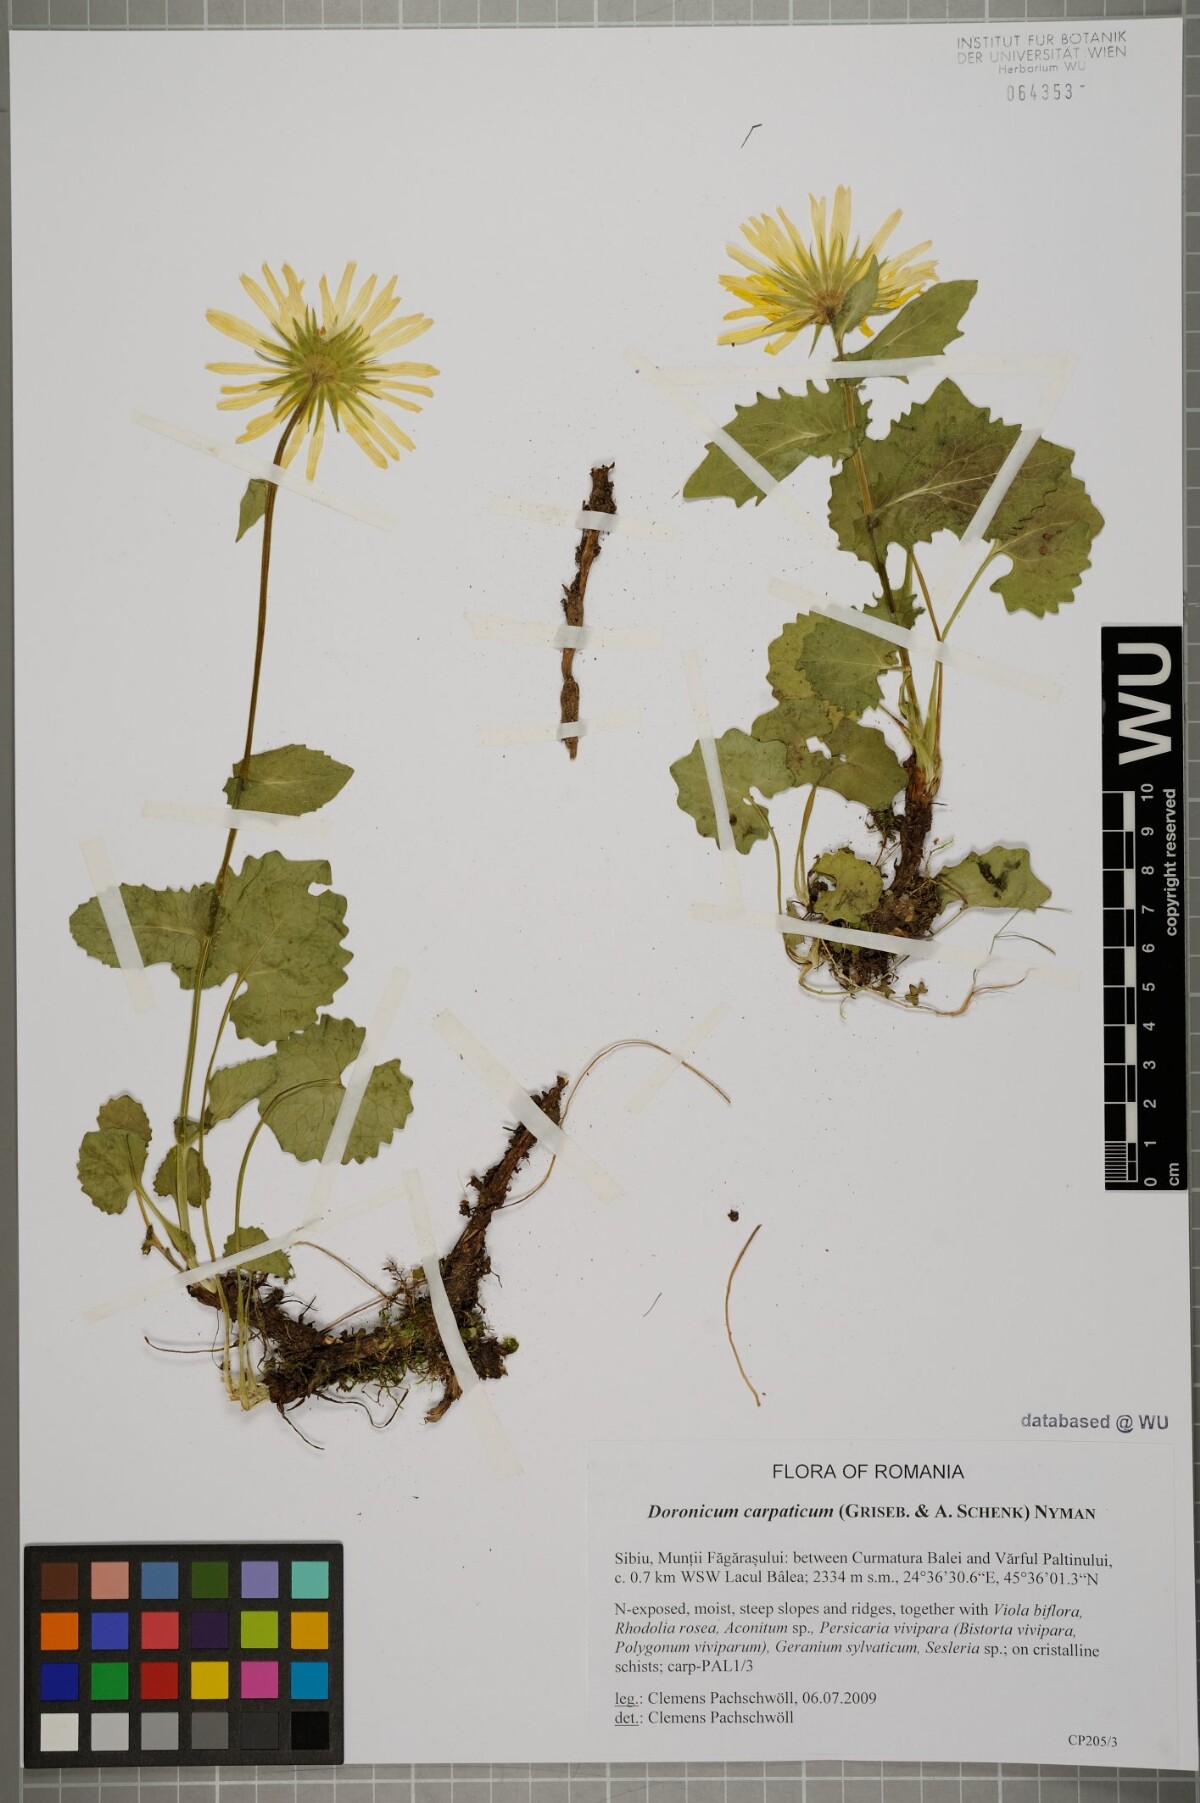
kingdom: Plantae
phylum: Tracheophyta
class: Magnoliopsida
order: Asterales
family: Asteraceae
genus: Doronicum
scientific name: Doronicum carpaticum
